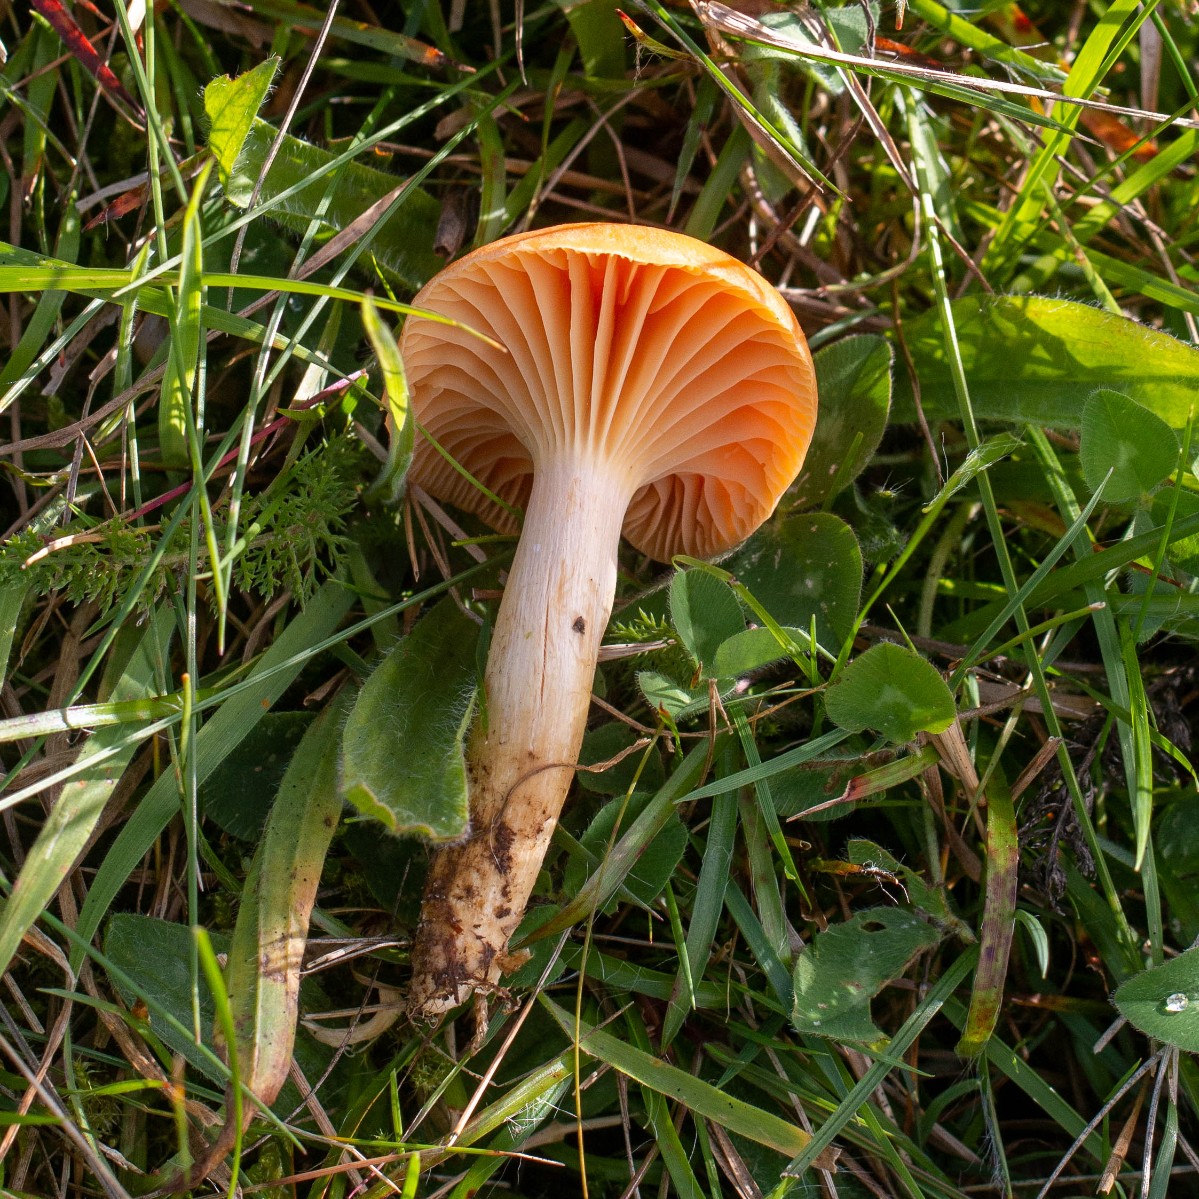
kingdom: Fungi
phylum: Basidiomycota
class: Agaricomycetes
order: Agaricales
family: Hygrophoraceae
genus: Cuphophyllus
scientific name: Cuphophyllus pratensis
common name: eng-vokshat
